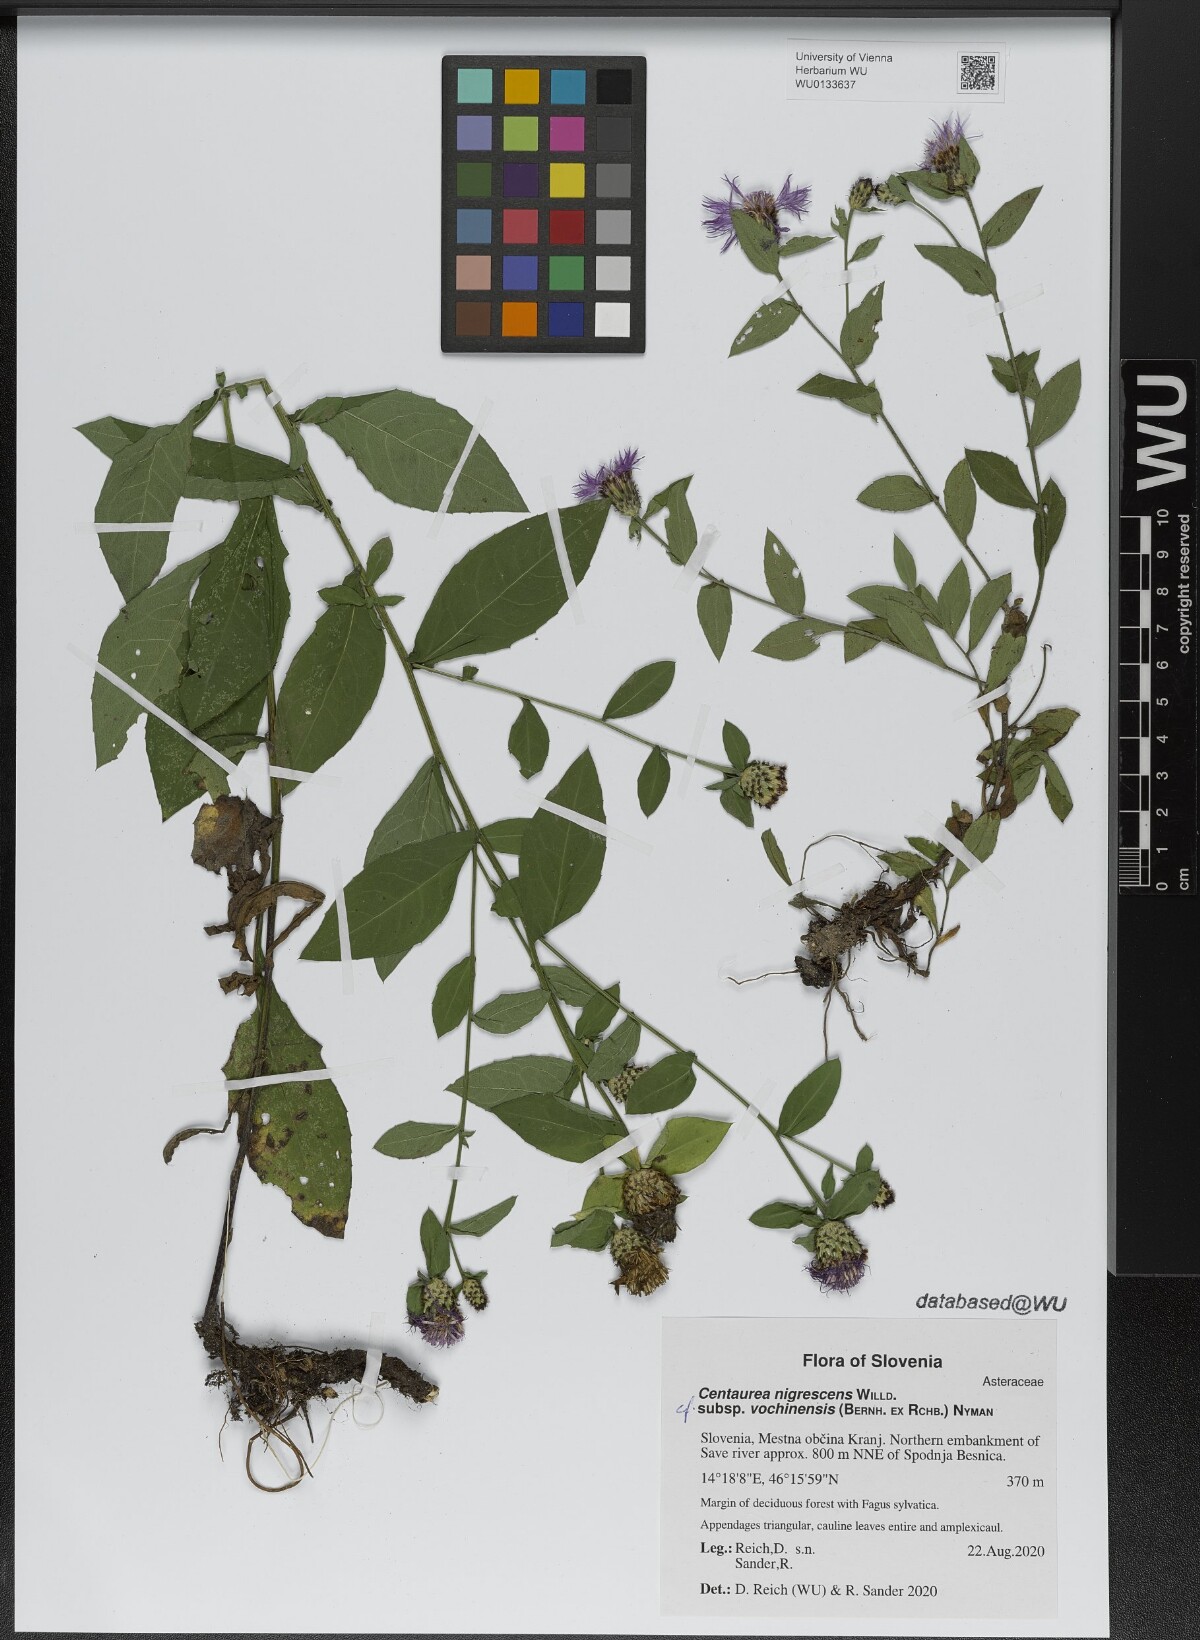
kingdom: Plantae
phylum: Tracheophyta
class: Magnoliopsida
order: Asterales
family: Asteraceae
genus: Centaurea
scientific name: Centaurea carniolica
